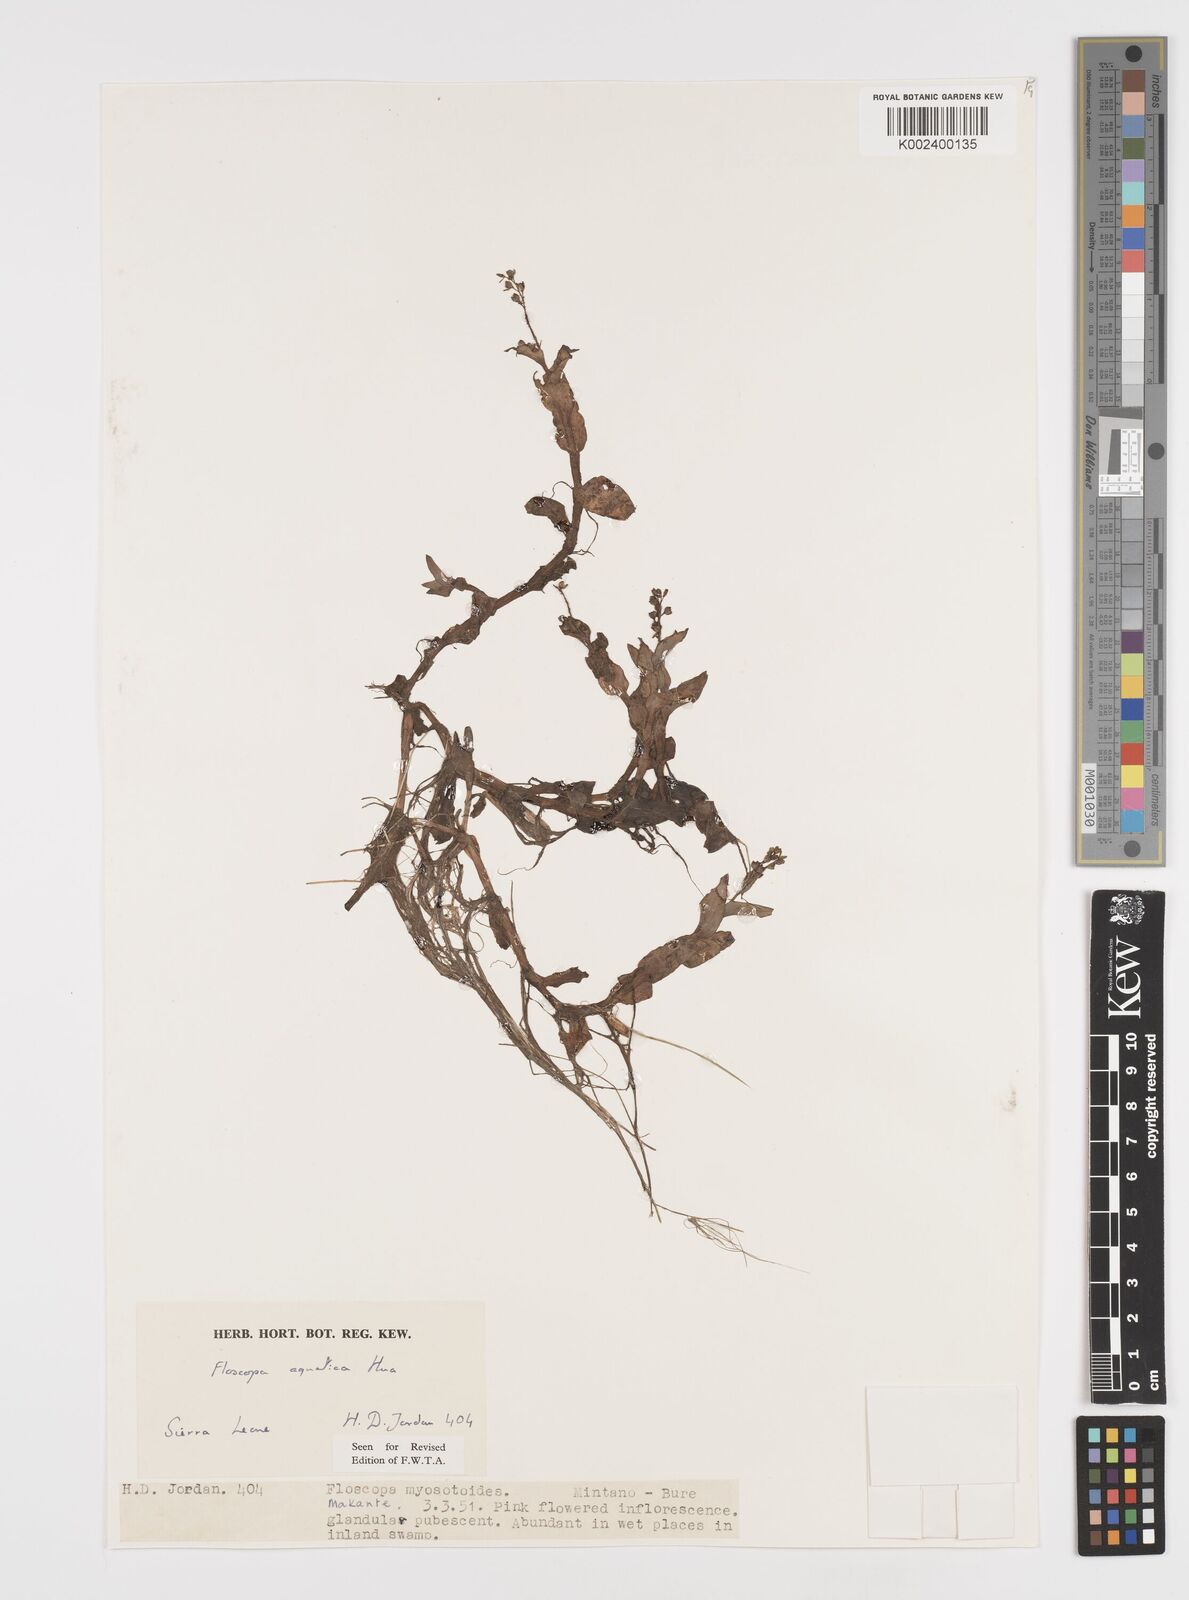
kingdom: Plantae
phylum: Tracheophyta
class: Liliopsida
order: Commelinales
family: Commelinaceae
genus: Floscopa
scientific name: Floscopa aquatica
